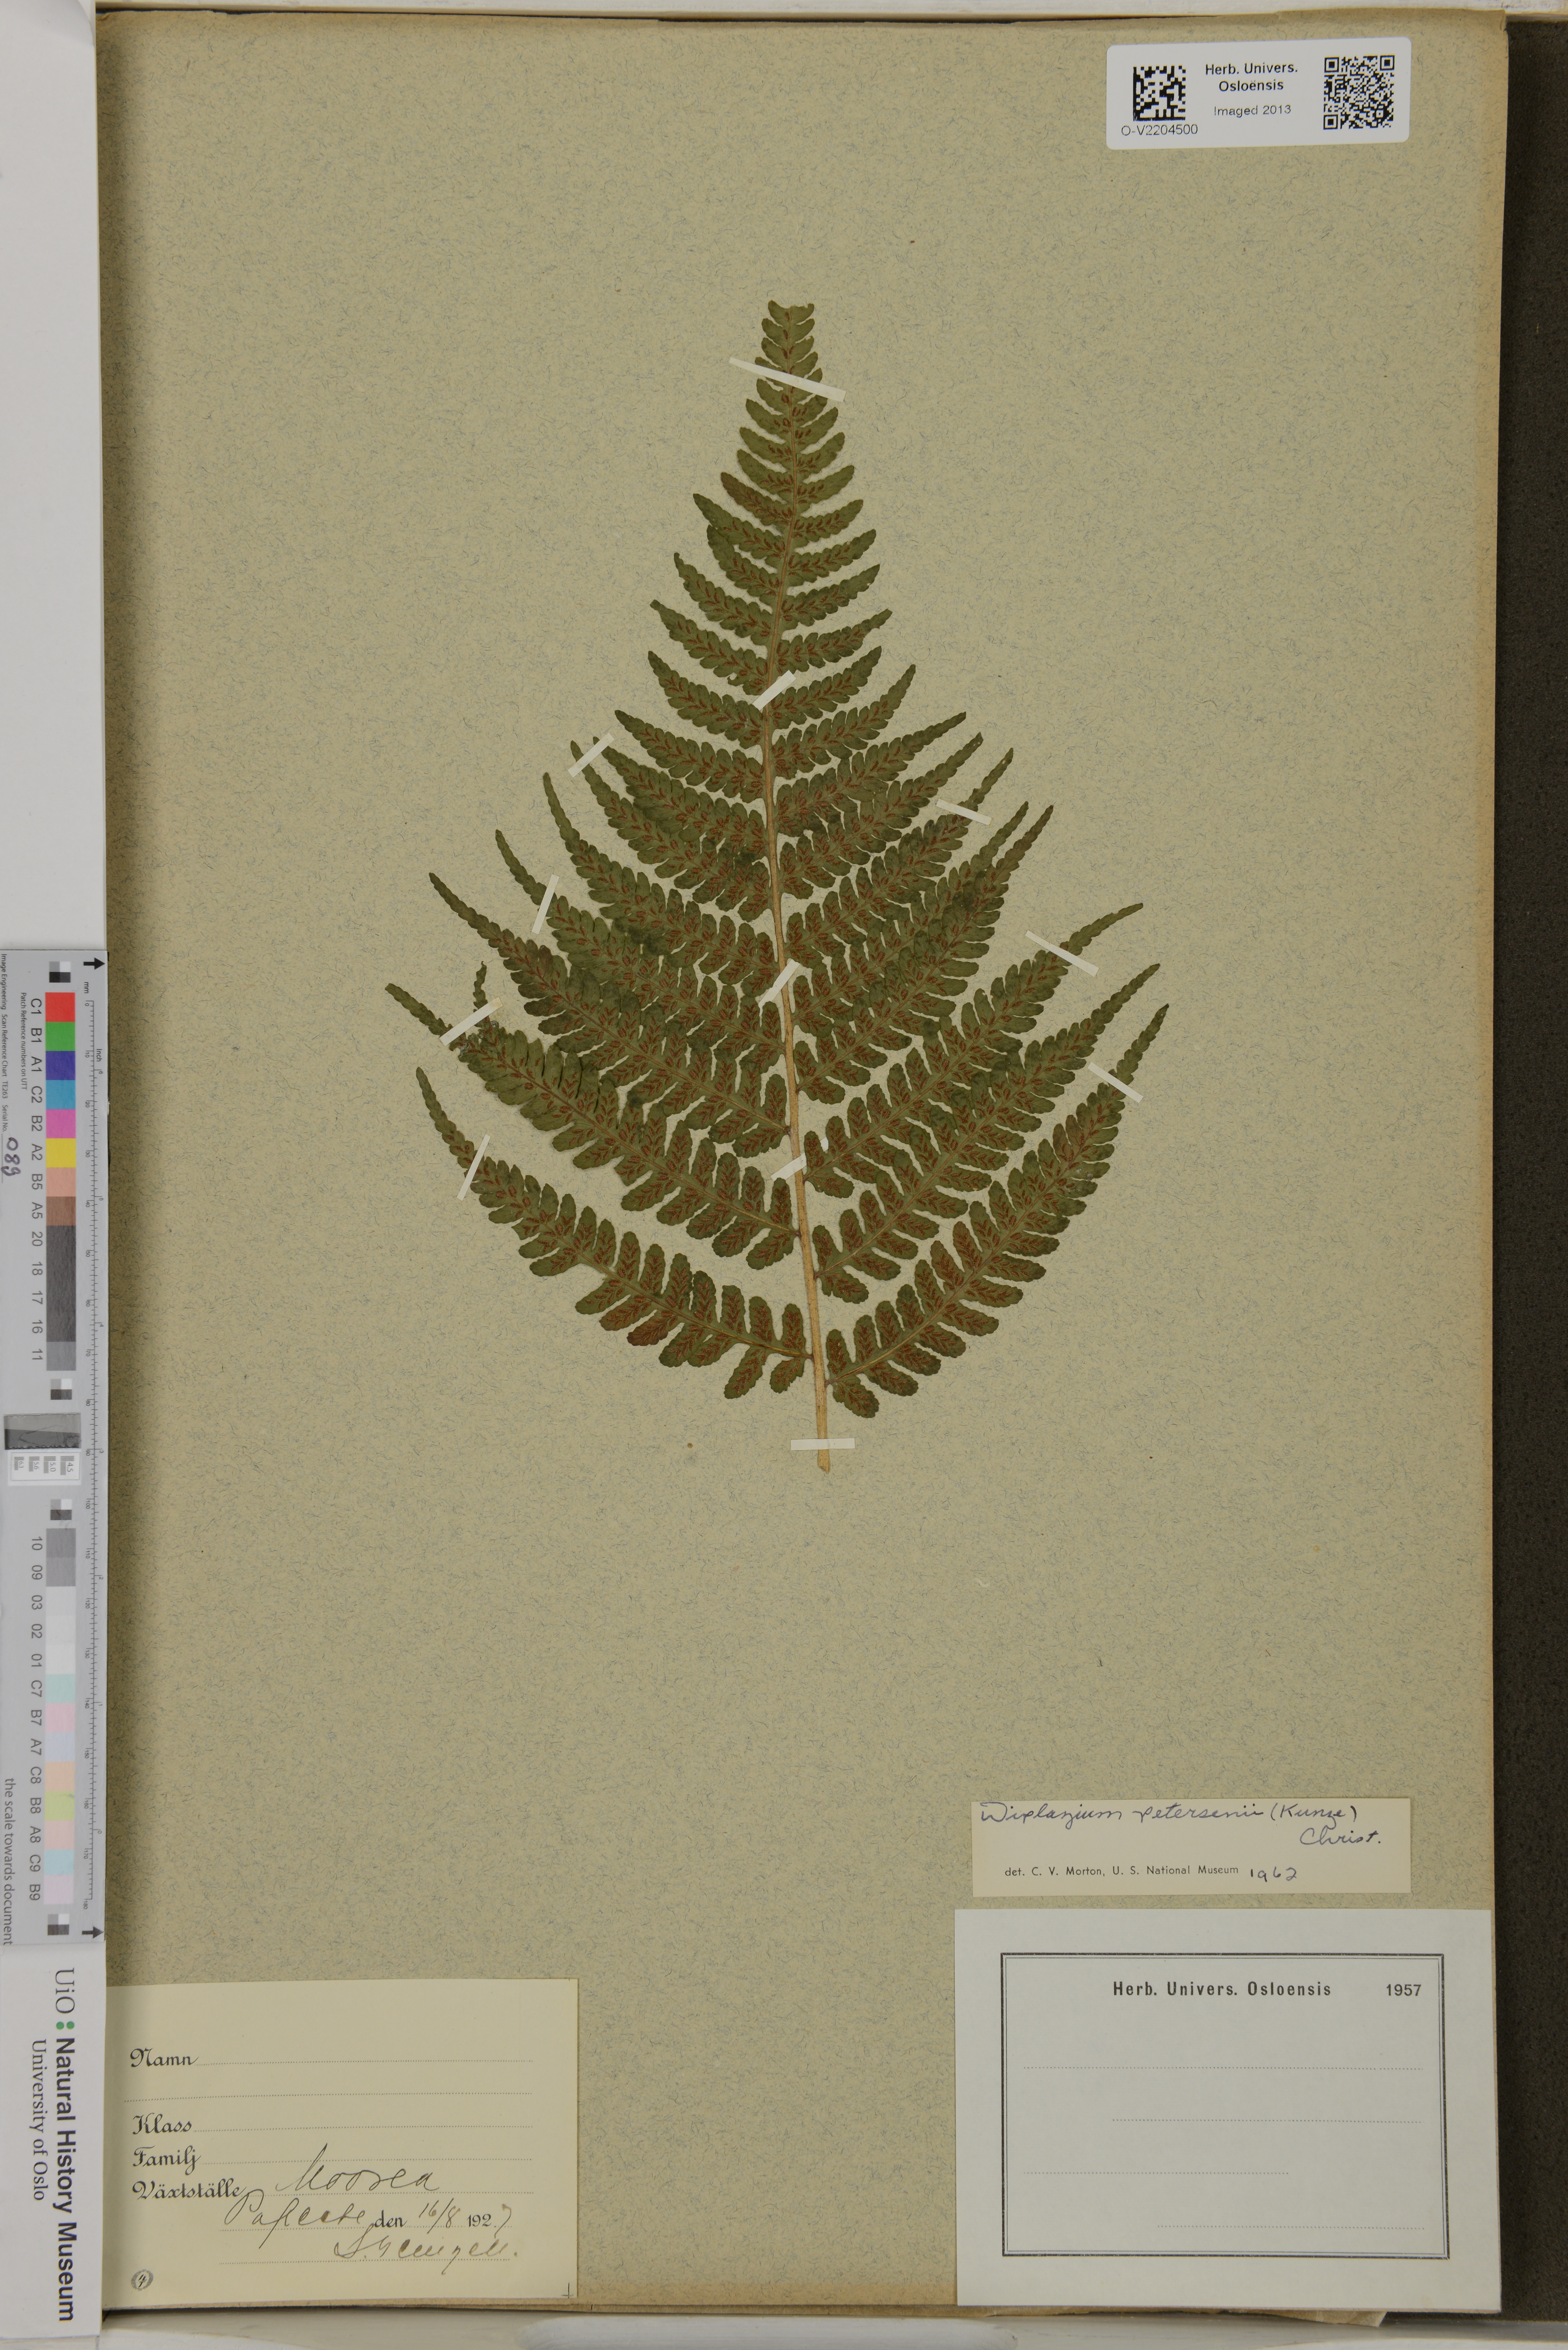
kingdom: Plantae
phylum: Tracheophyta
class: Polypodiopsida
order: Polypodiales
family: Athyriaceae
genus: Deparia
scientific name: Deparia petersenii
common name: Japanese false spleenwort
